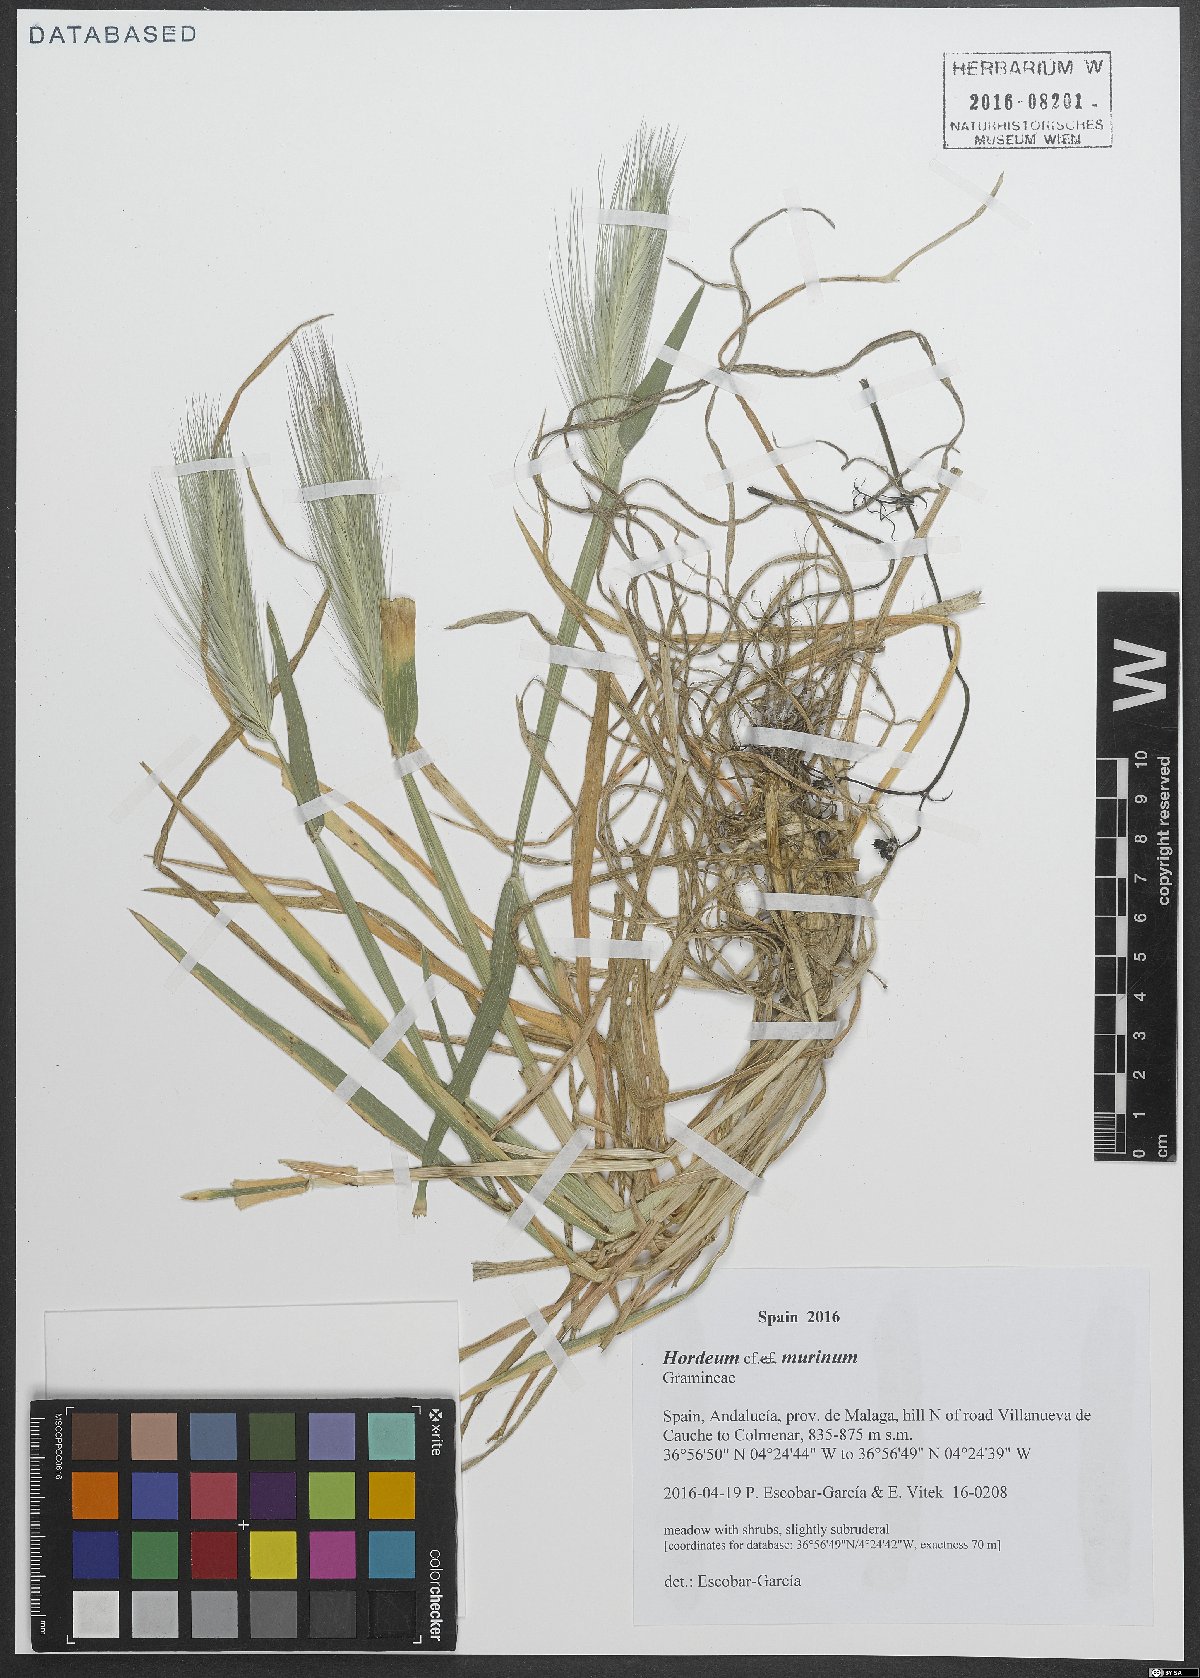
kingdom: Plantae
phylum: Tracheophyta
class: Liliopsida
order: Poales
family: Poaceae
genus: Hordeum
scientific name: Hordeum murinum
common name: Wall barley
